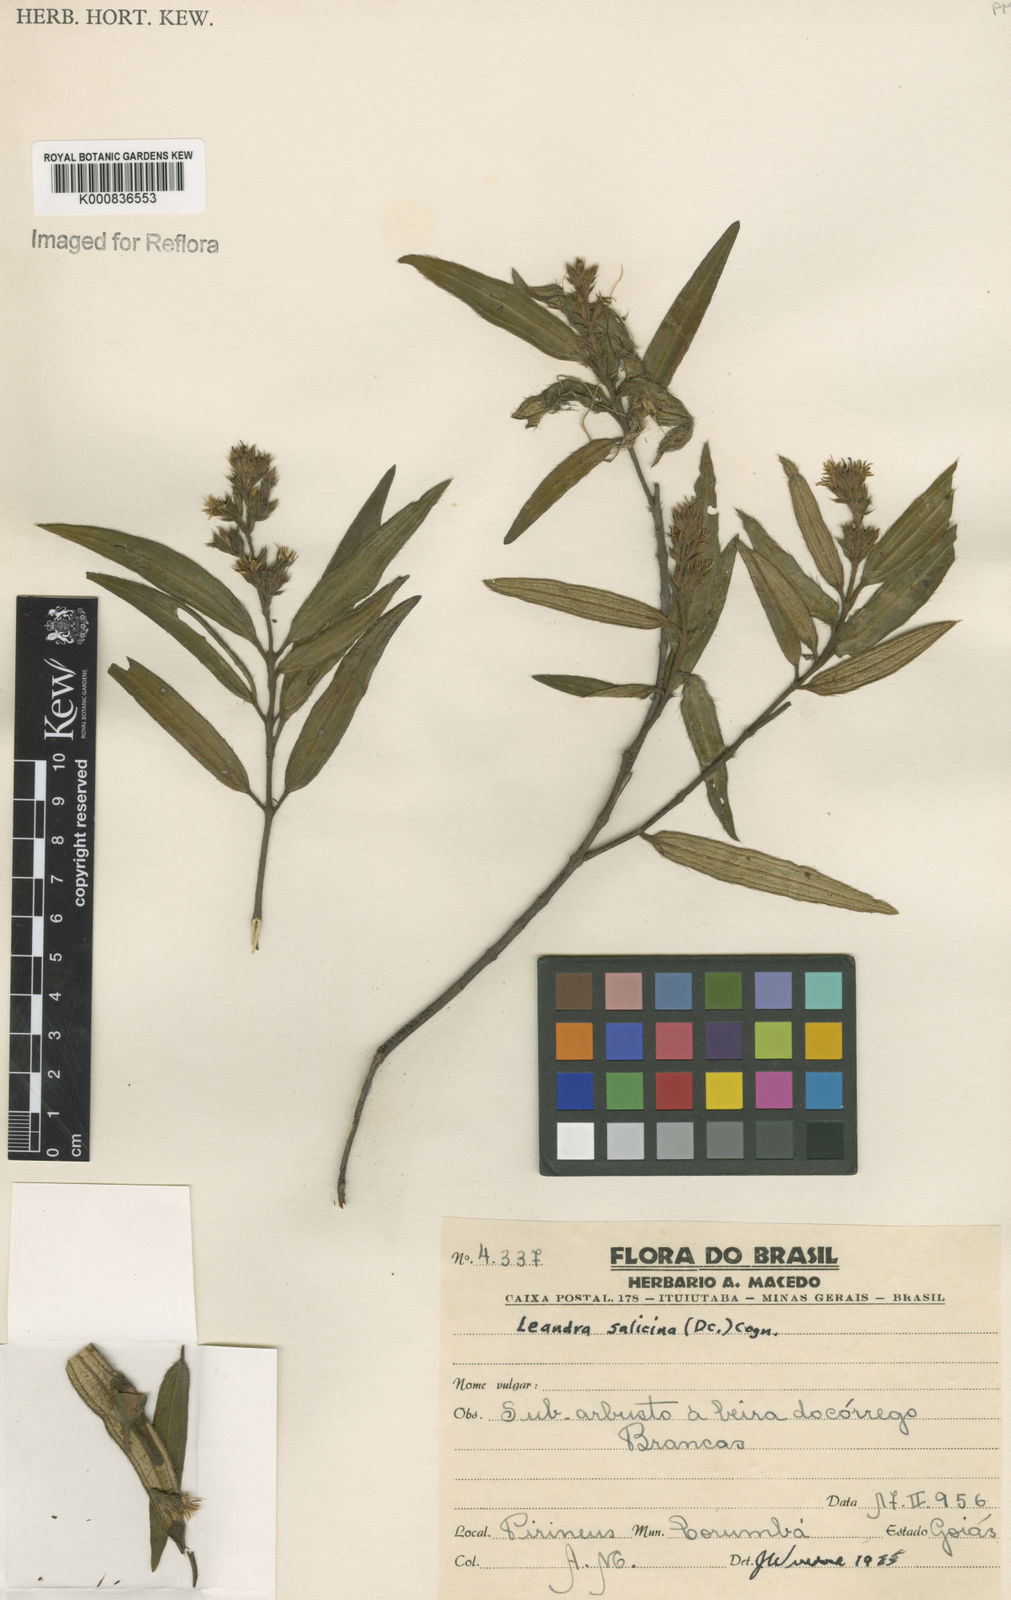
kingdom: Plantae
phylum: Tracheophyta
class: Magnoliopsida
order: Myrtales
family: Melastomataceae
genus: Miconia
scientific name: Miconia salicina
